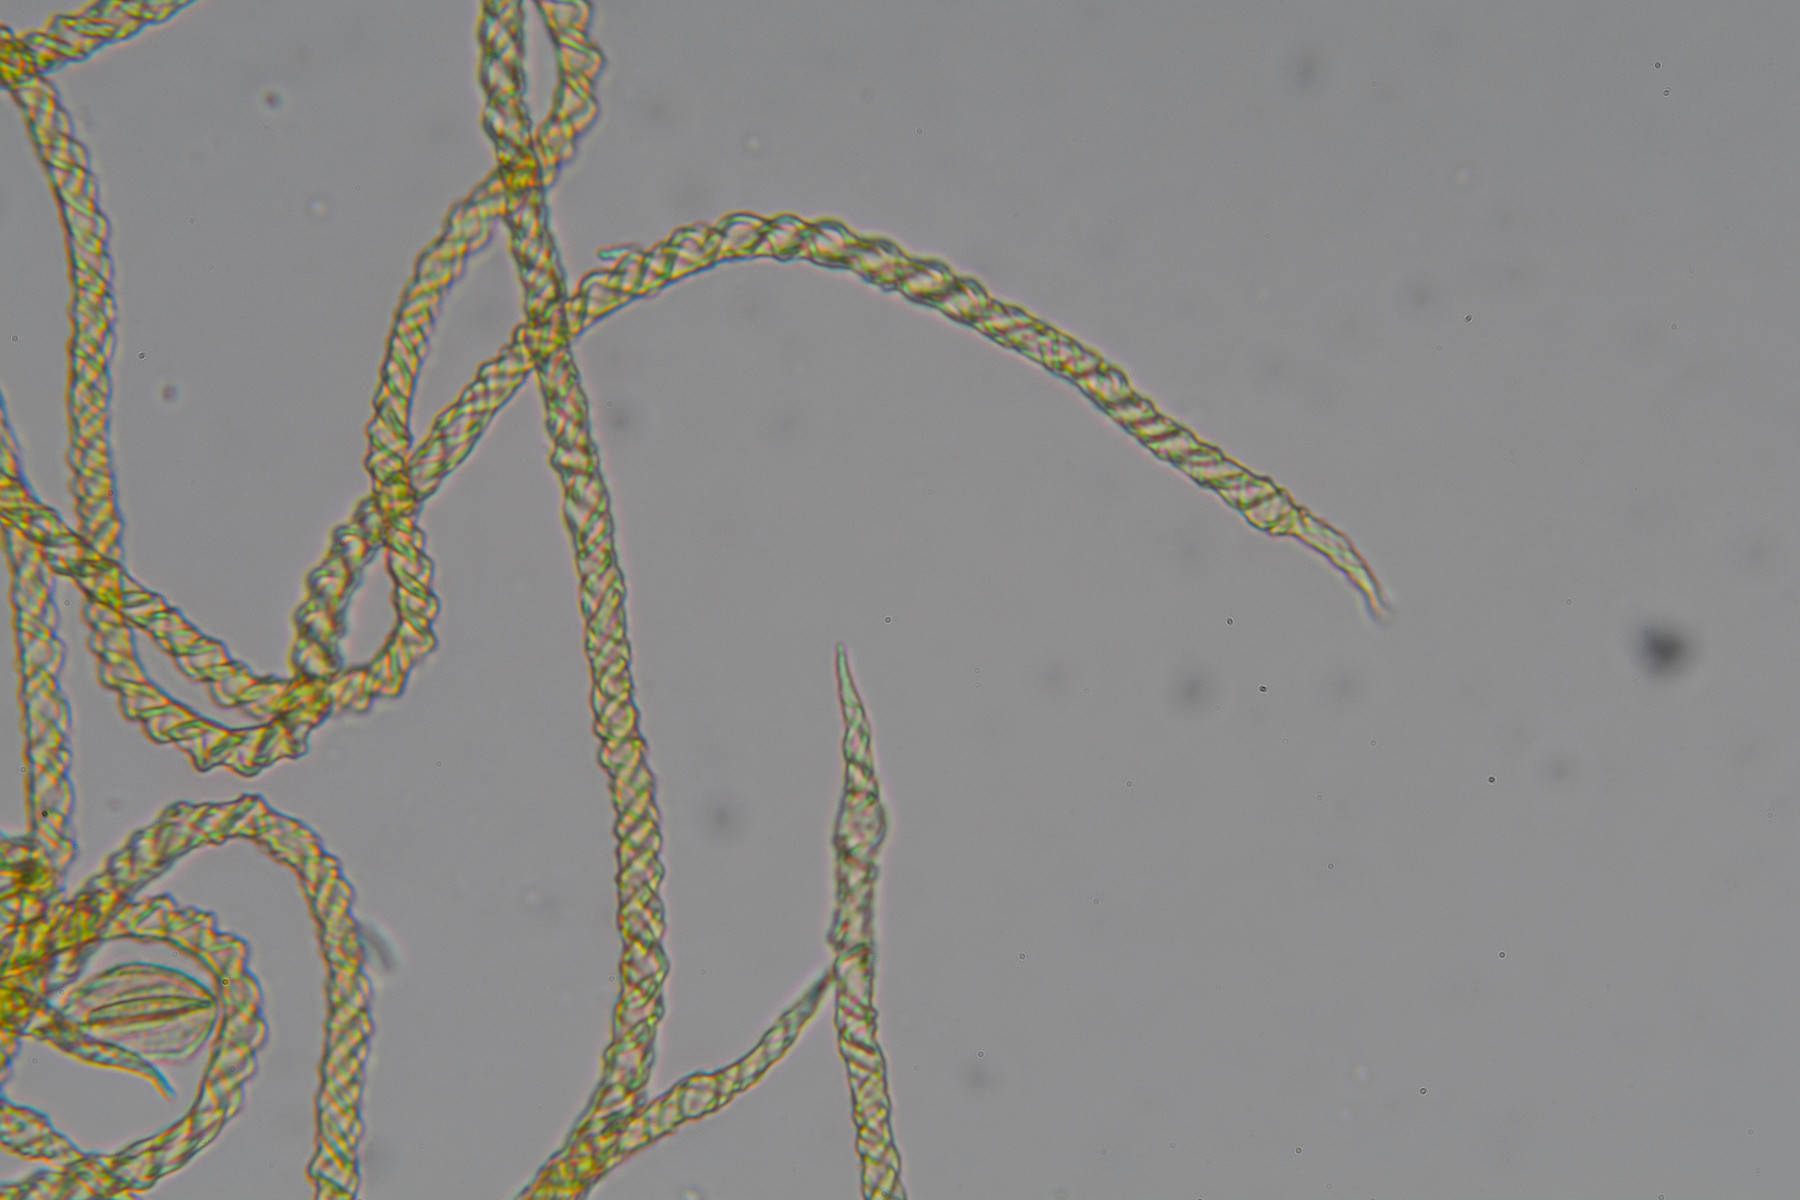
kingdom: Protozoa
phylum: Mycetozoa
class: Myxomycetes
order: Trichiales
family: Trichiaceae
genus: Trichia
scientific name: Trichia varia
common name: foranderlig hårbold
